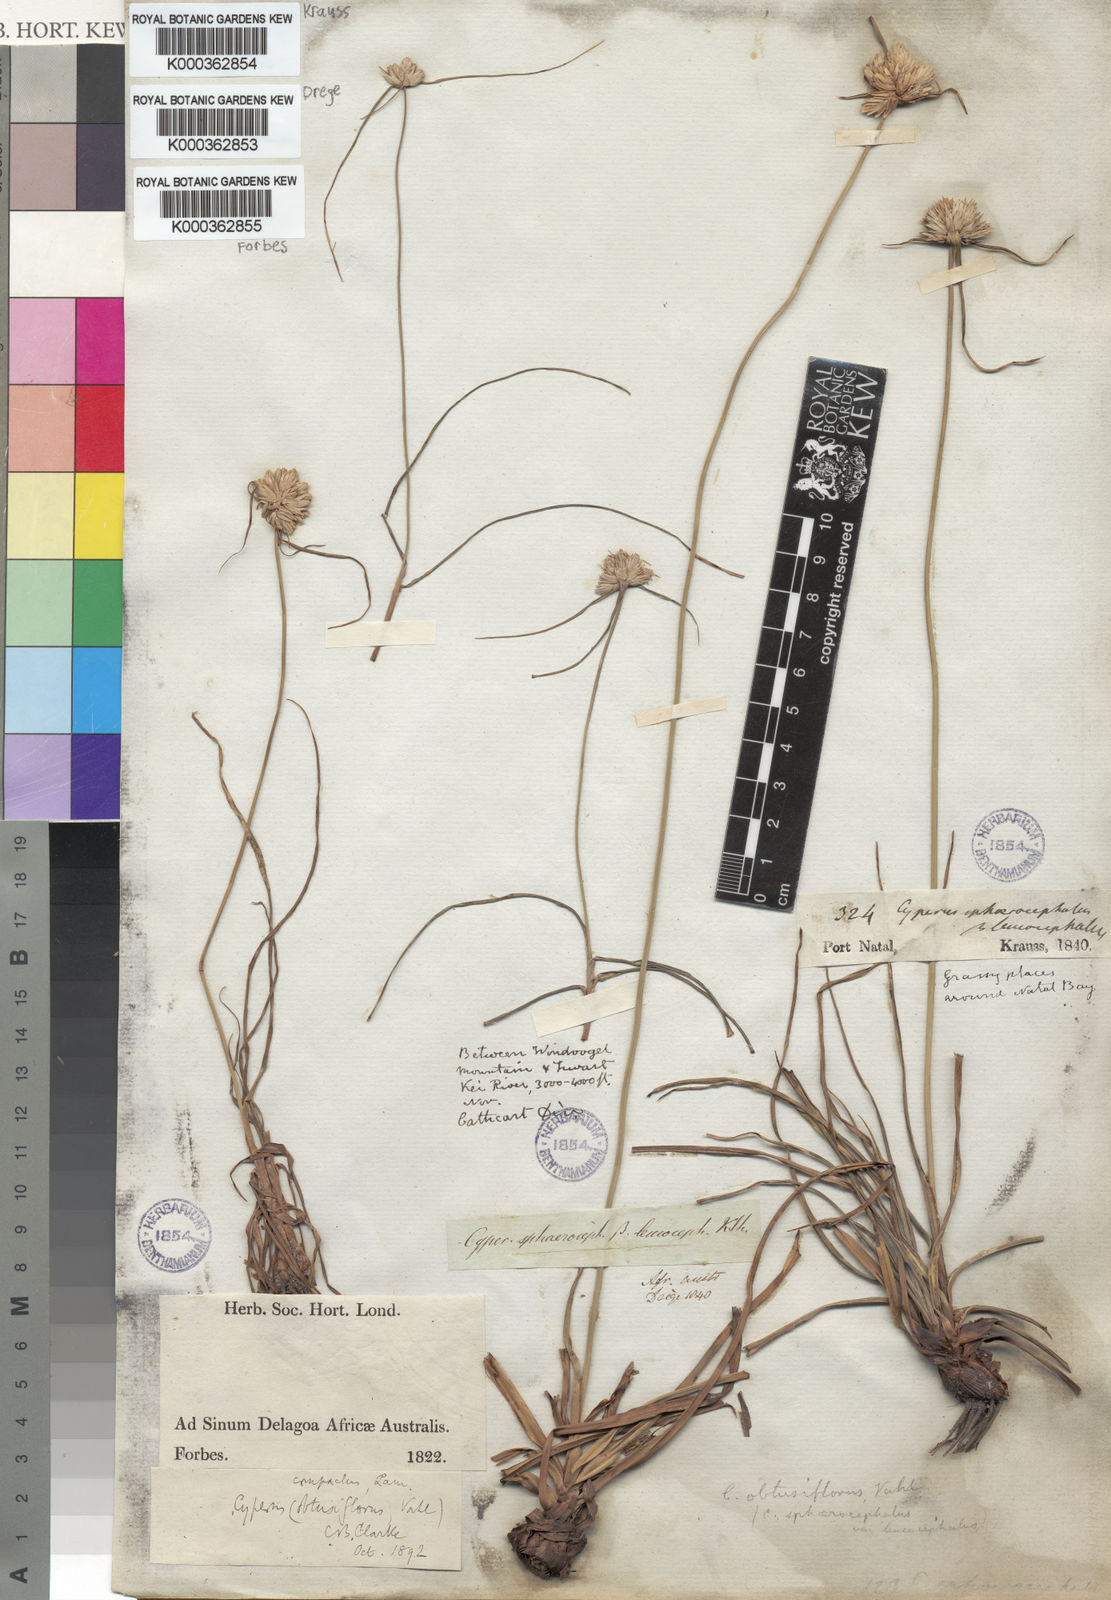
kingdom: Plantae
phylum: Tracheophyta
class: Liliopsida
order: Poales
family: Cyperaceae
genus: Cyperus
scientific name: Cyperus niveus
